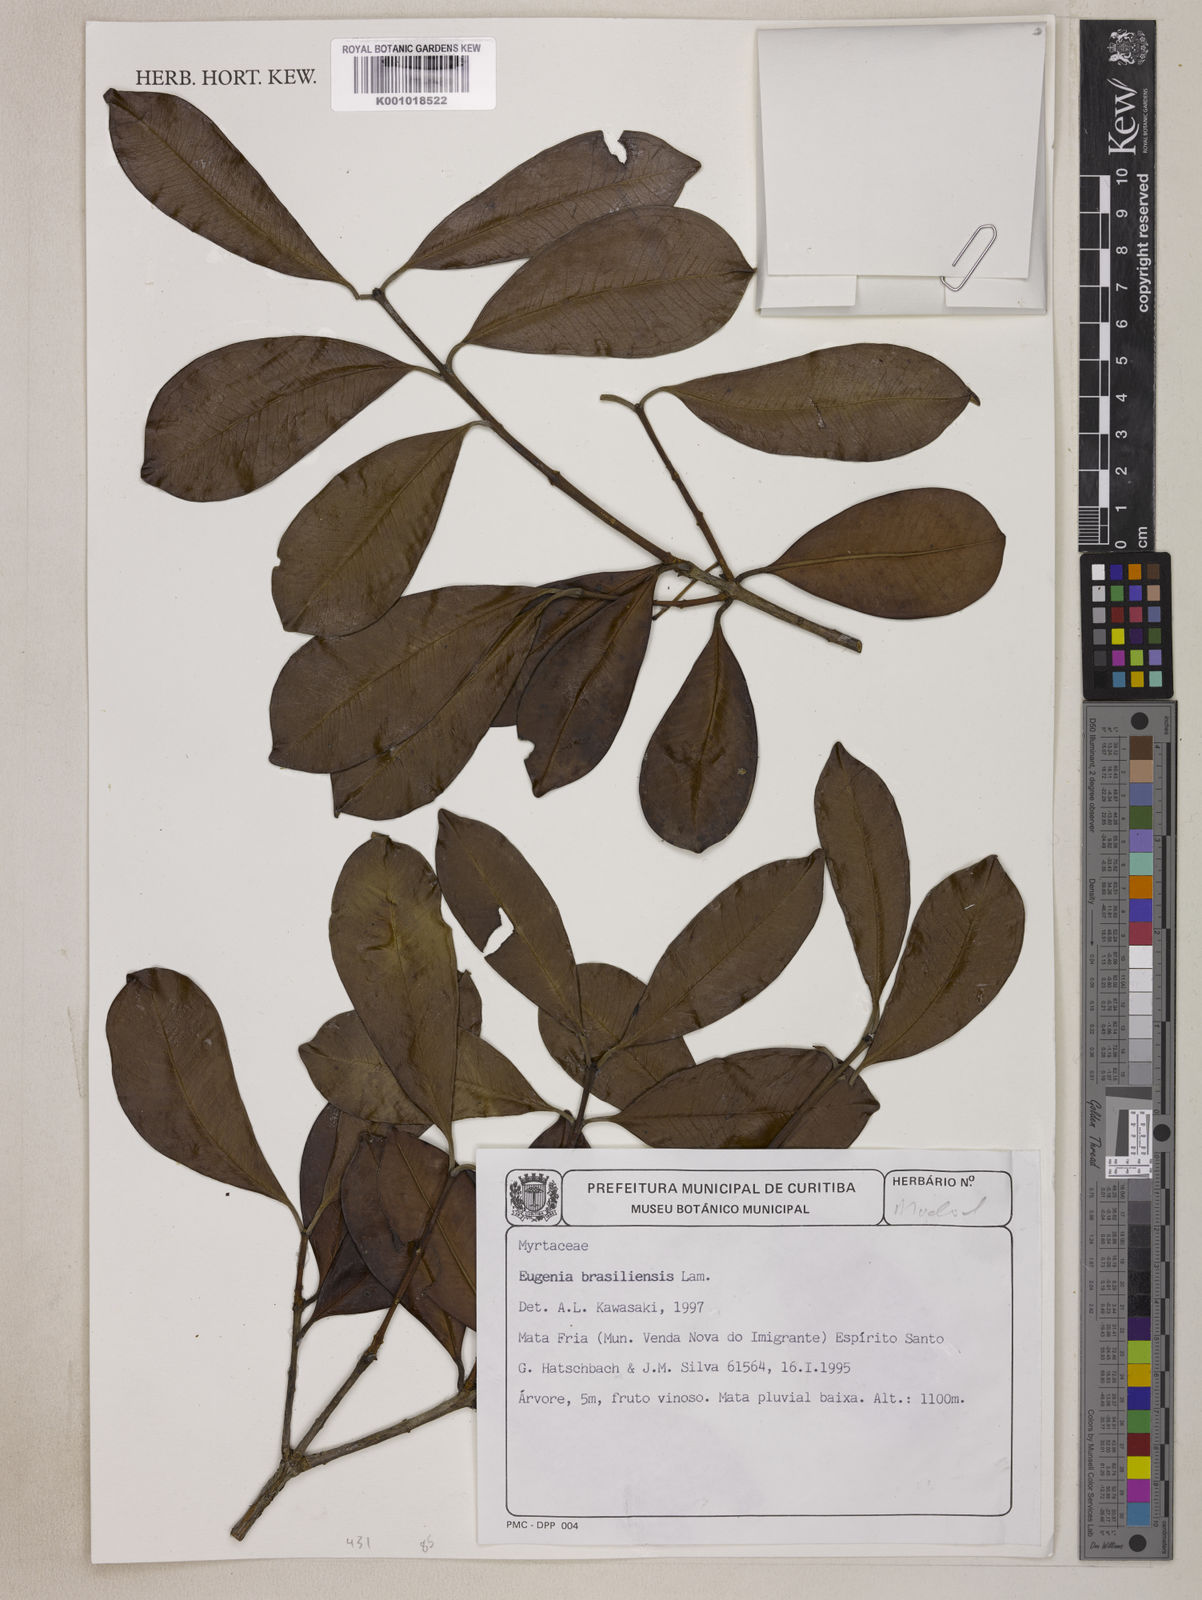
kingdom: Plantae
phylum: Tracheophyta
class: Magnoliopsida
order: Myrtales
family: Myrtaceae
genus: Eugenia
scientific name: Eugenia brasiliensis
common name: Grumichama
